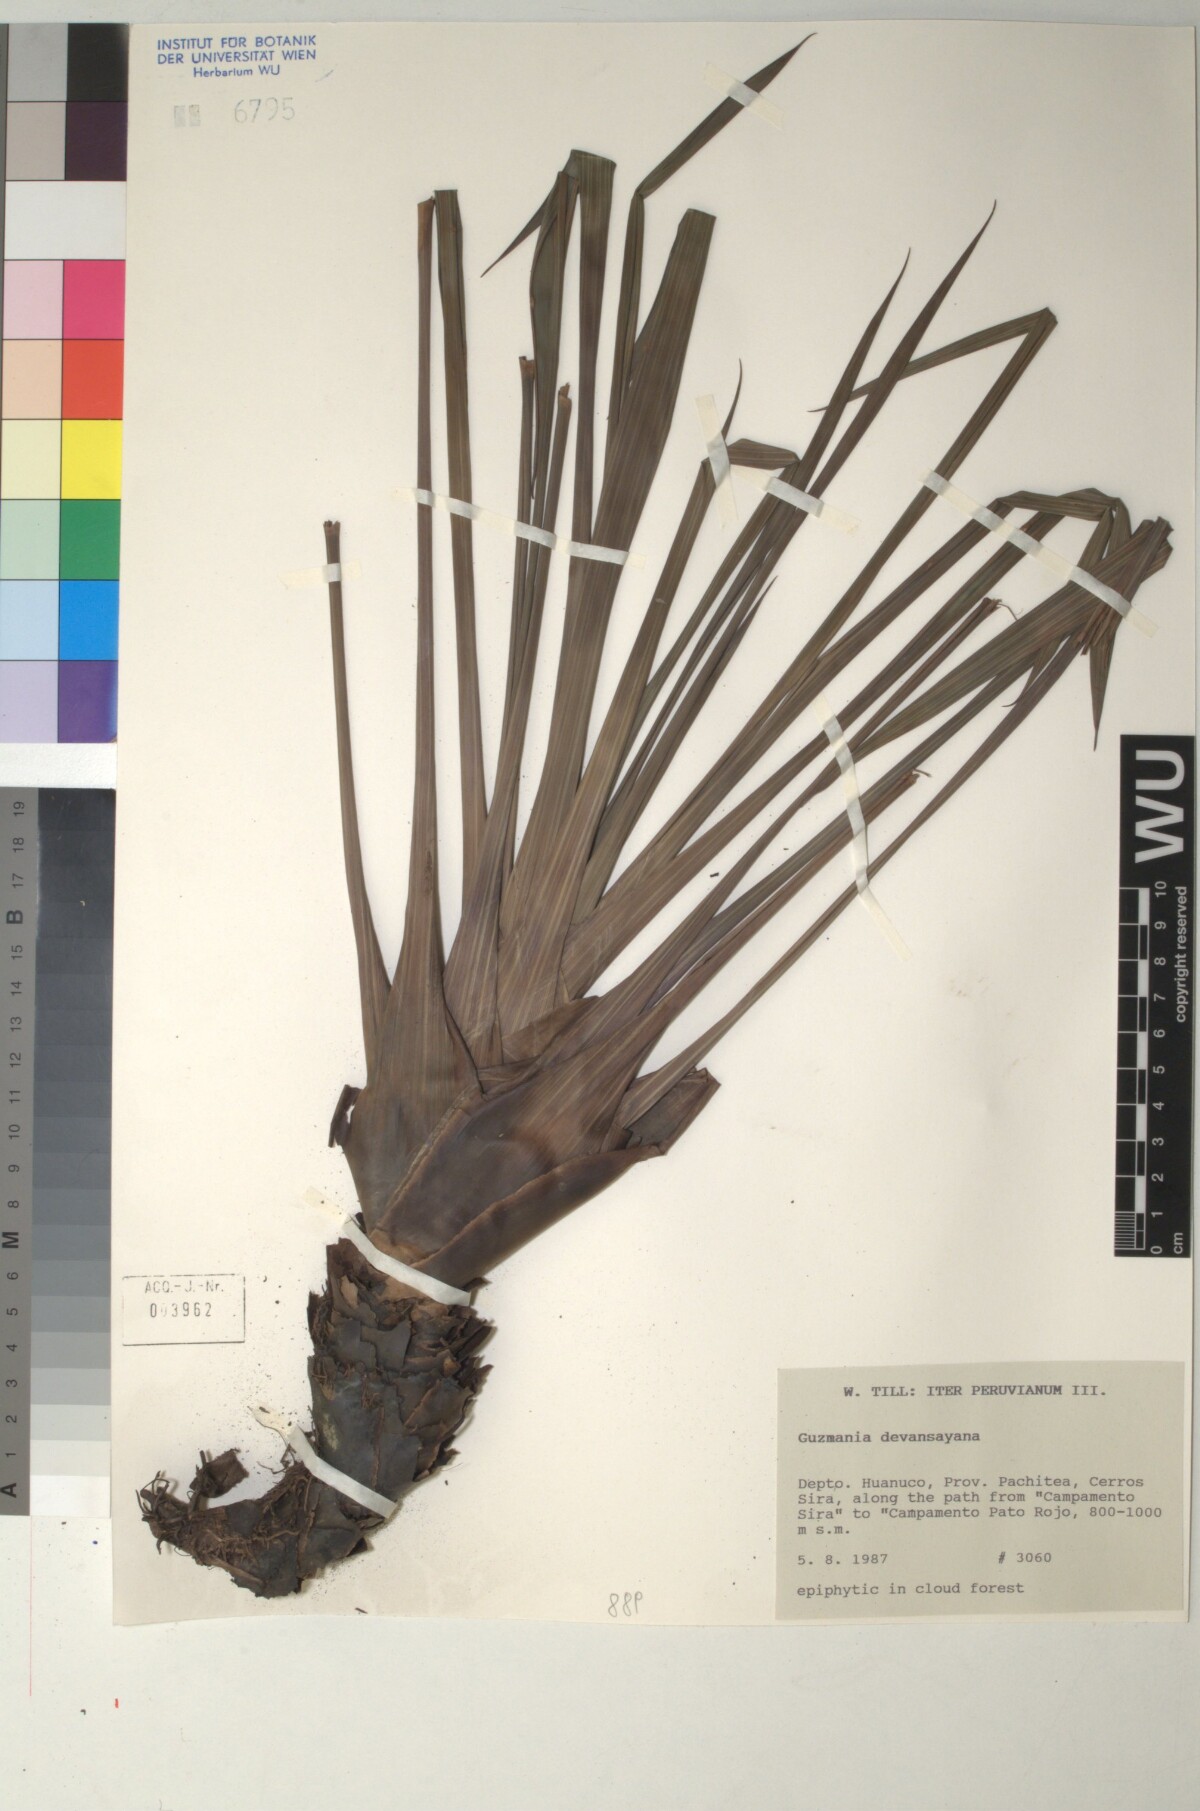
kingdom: Plantae
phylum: Tracheophyta
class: Liliopsida
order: Poales
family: Bromeliaceae
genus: Guzmania
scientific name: Guzmania devansayana
